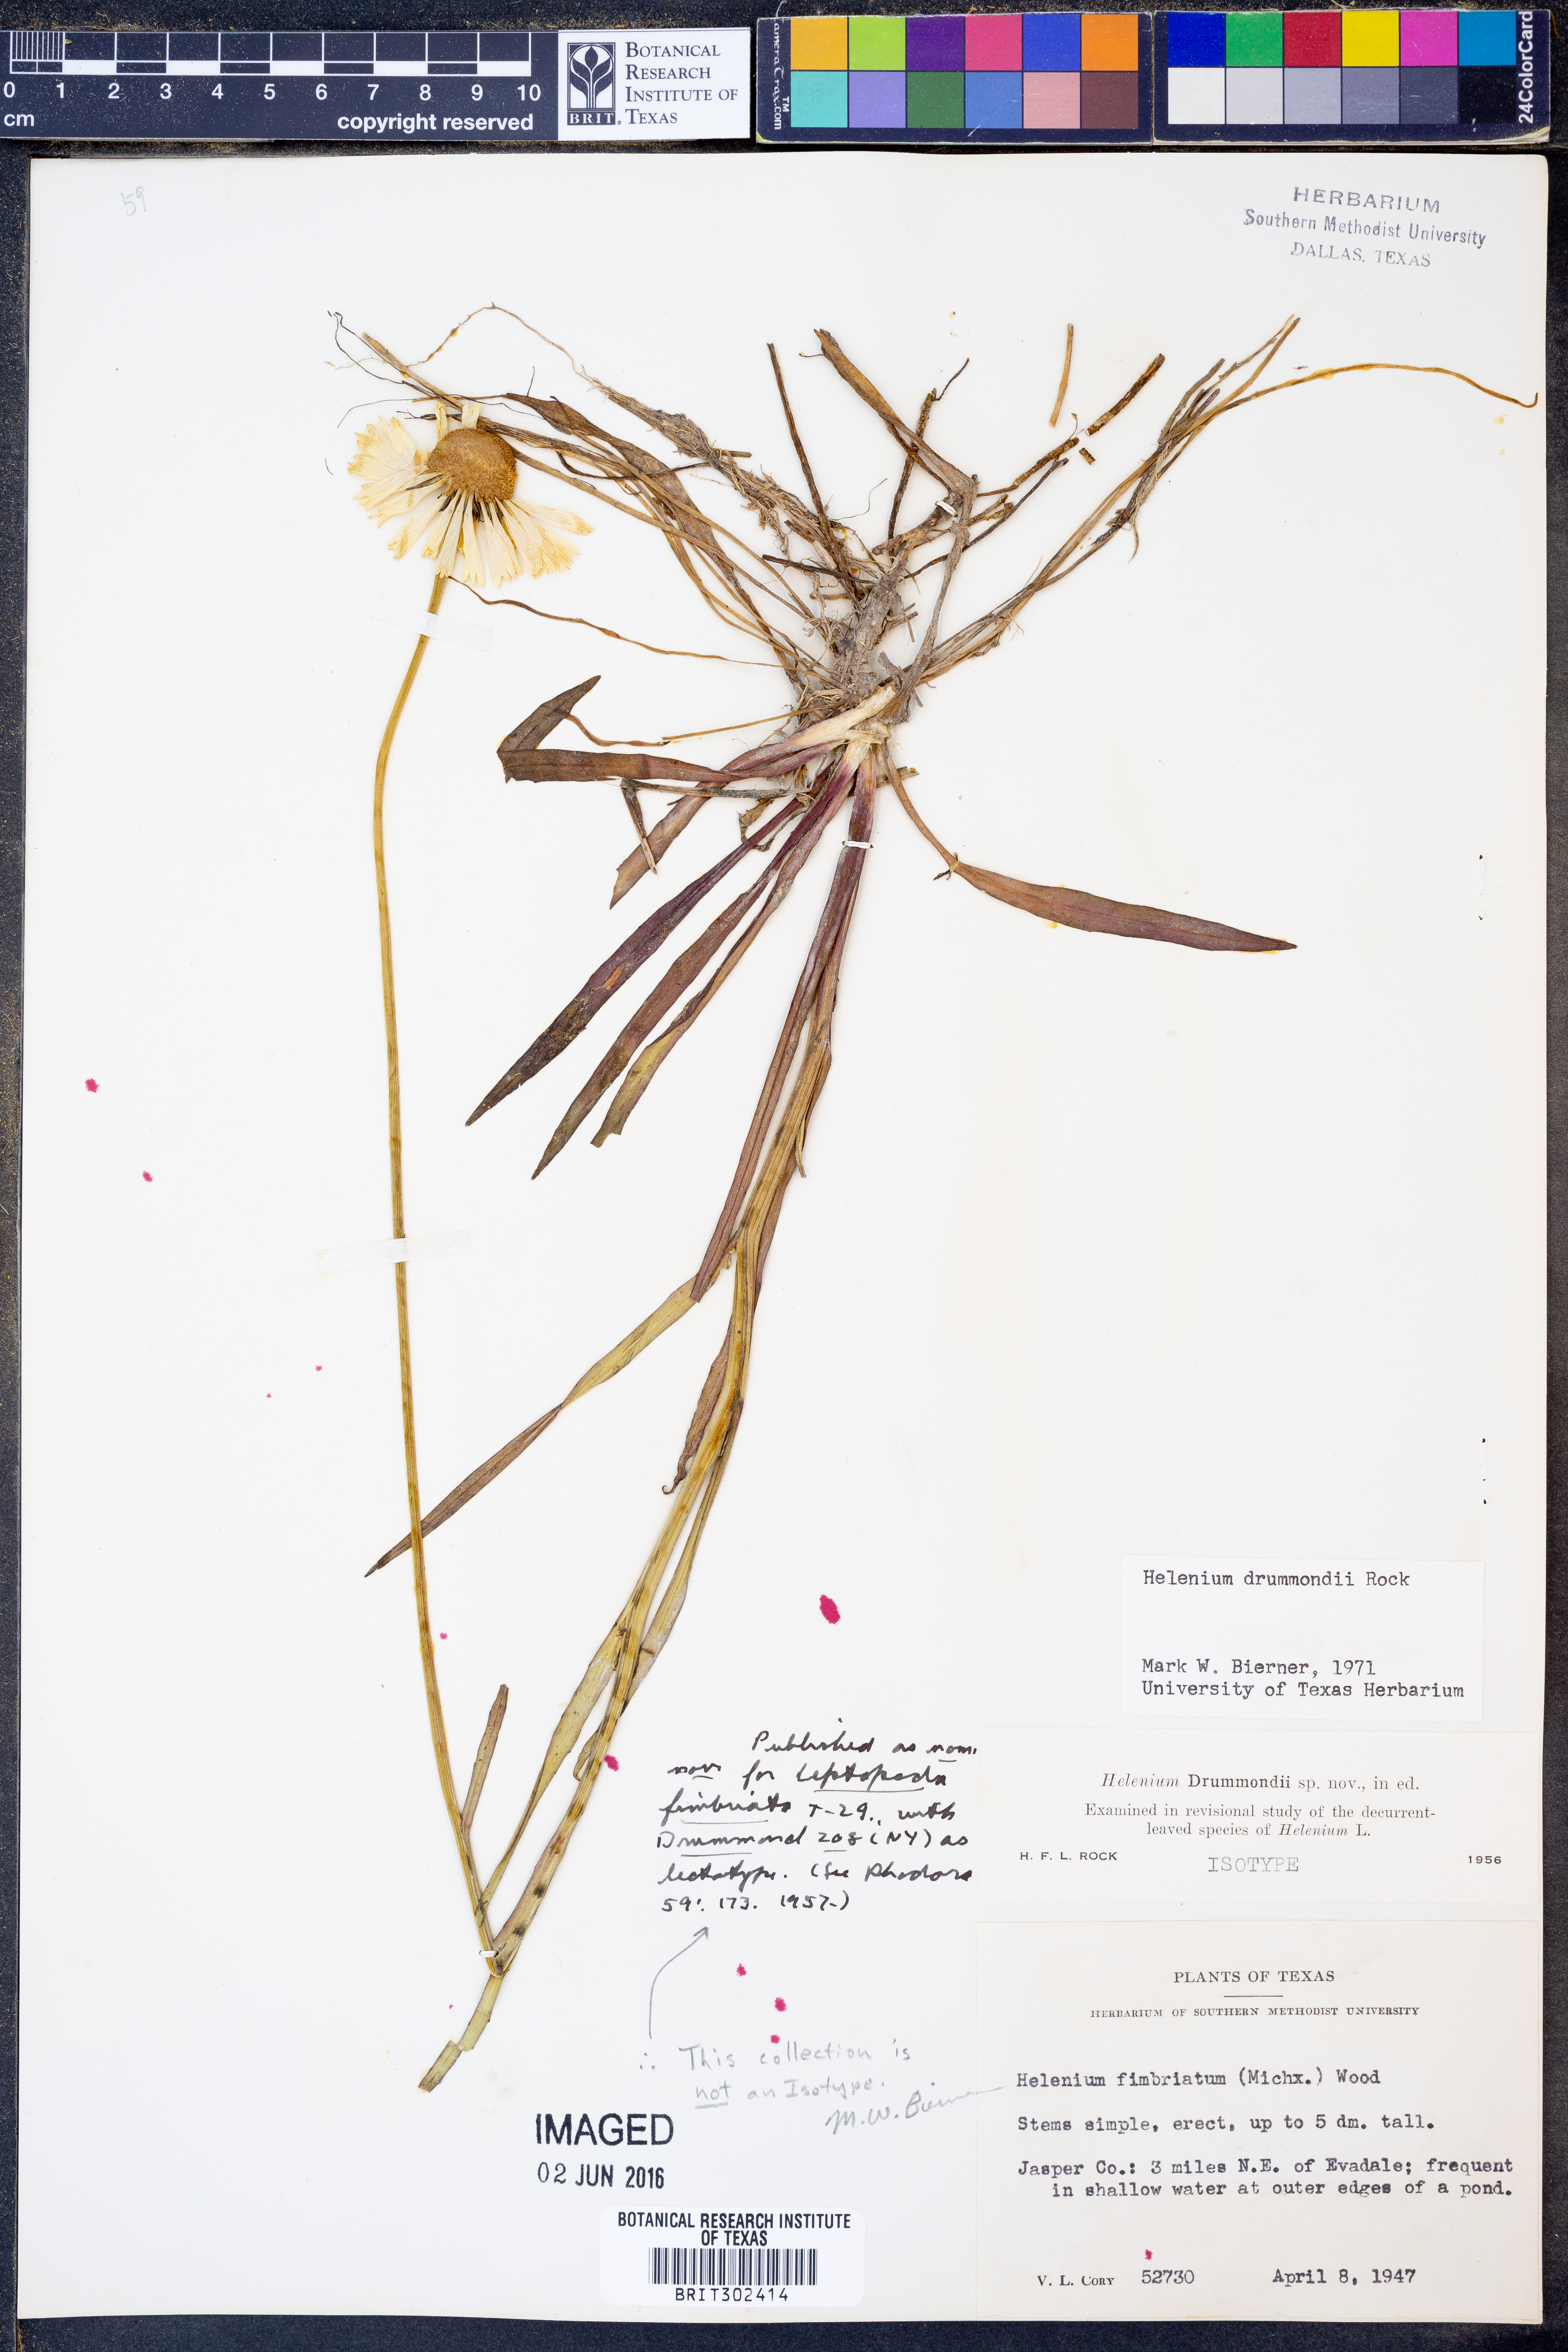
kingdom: Plantae
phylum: Tracheophyta
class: Magnoliopsida
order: Asterales
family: Asteraceae
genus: Helenium
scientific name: Helenium drummondii
